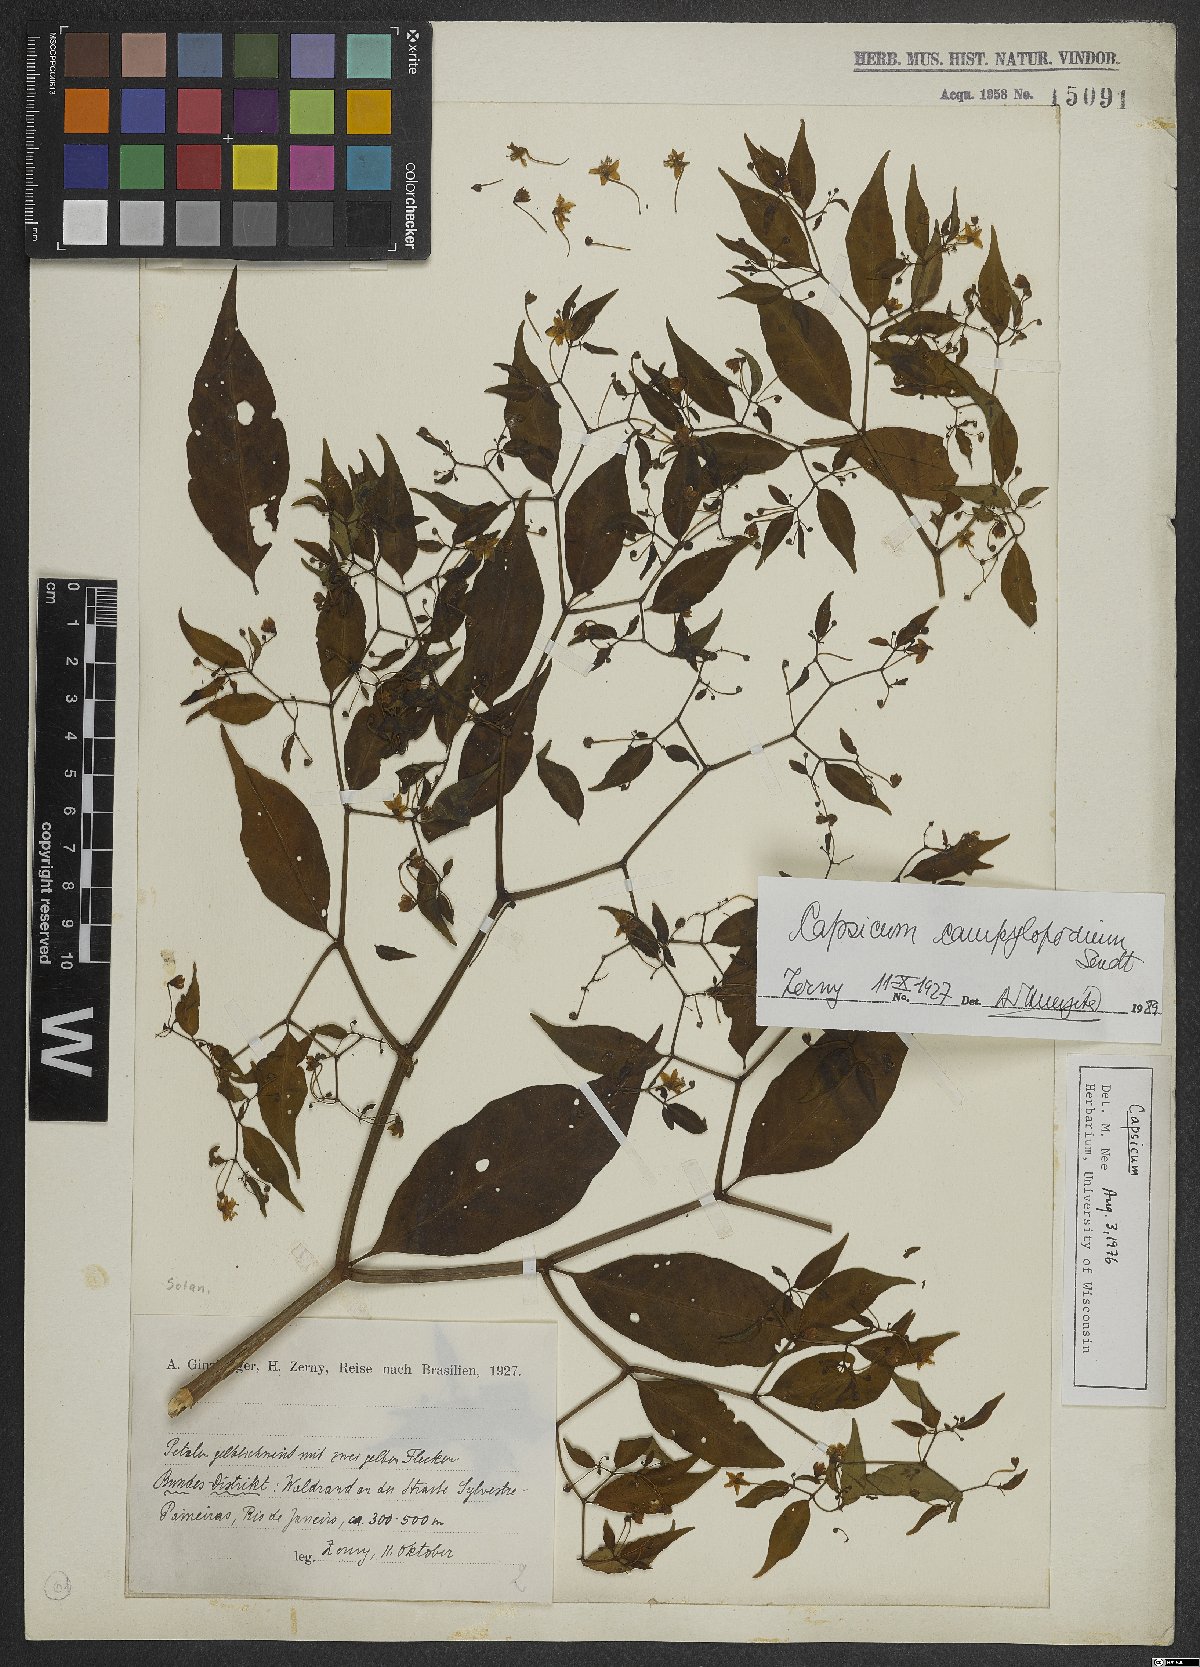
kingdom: Plantae
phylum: Tracheophyta
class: Magnoliopsida
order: Solanales
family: Solanaceae
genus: Capsicum
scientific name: Capsicum campylopodium
